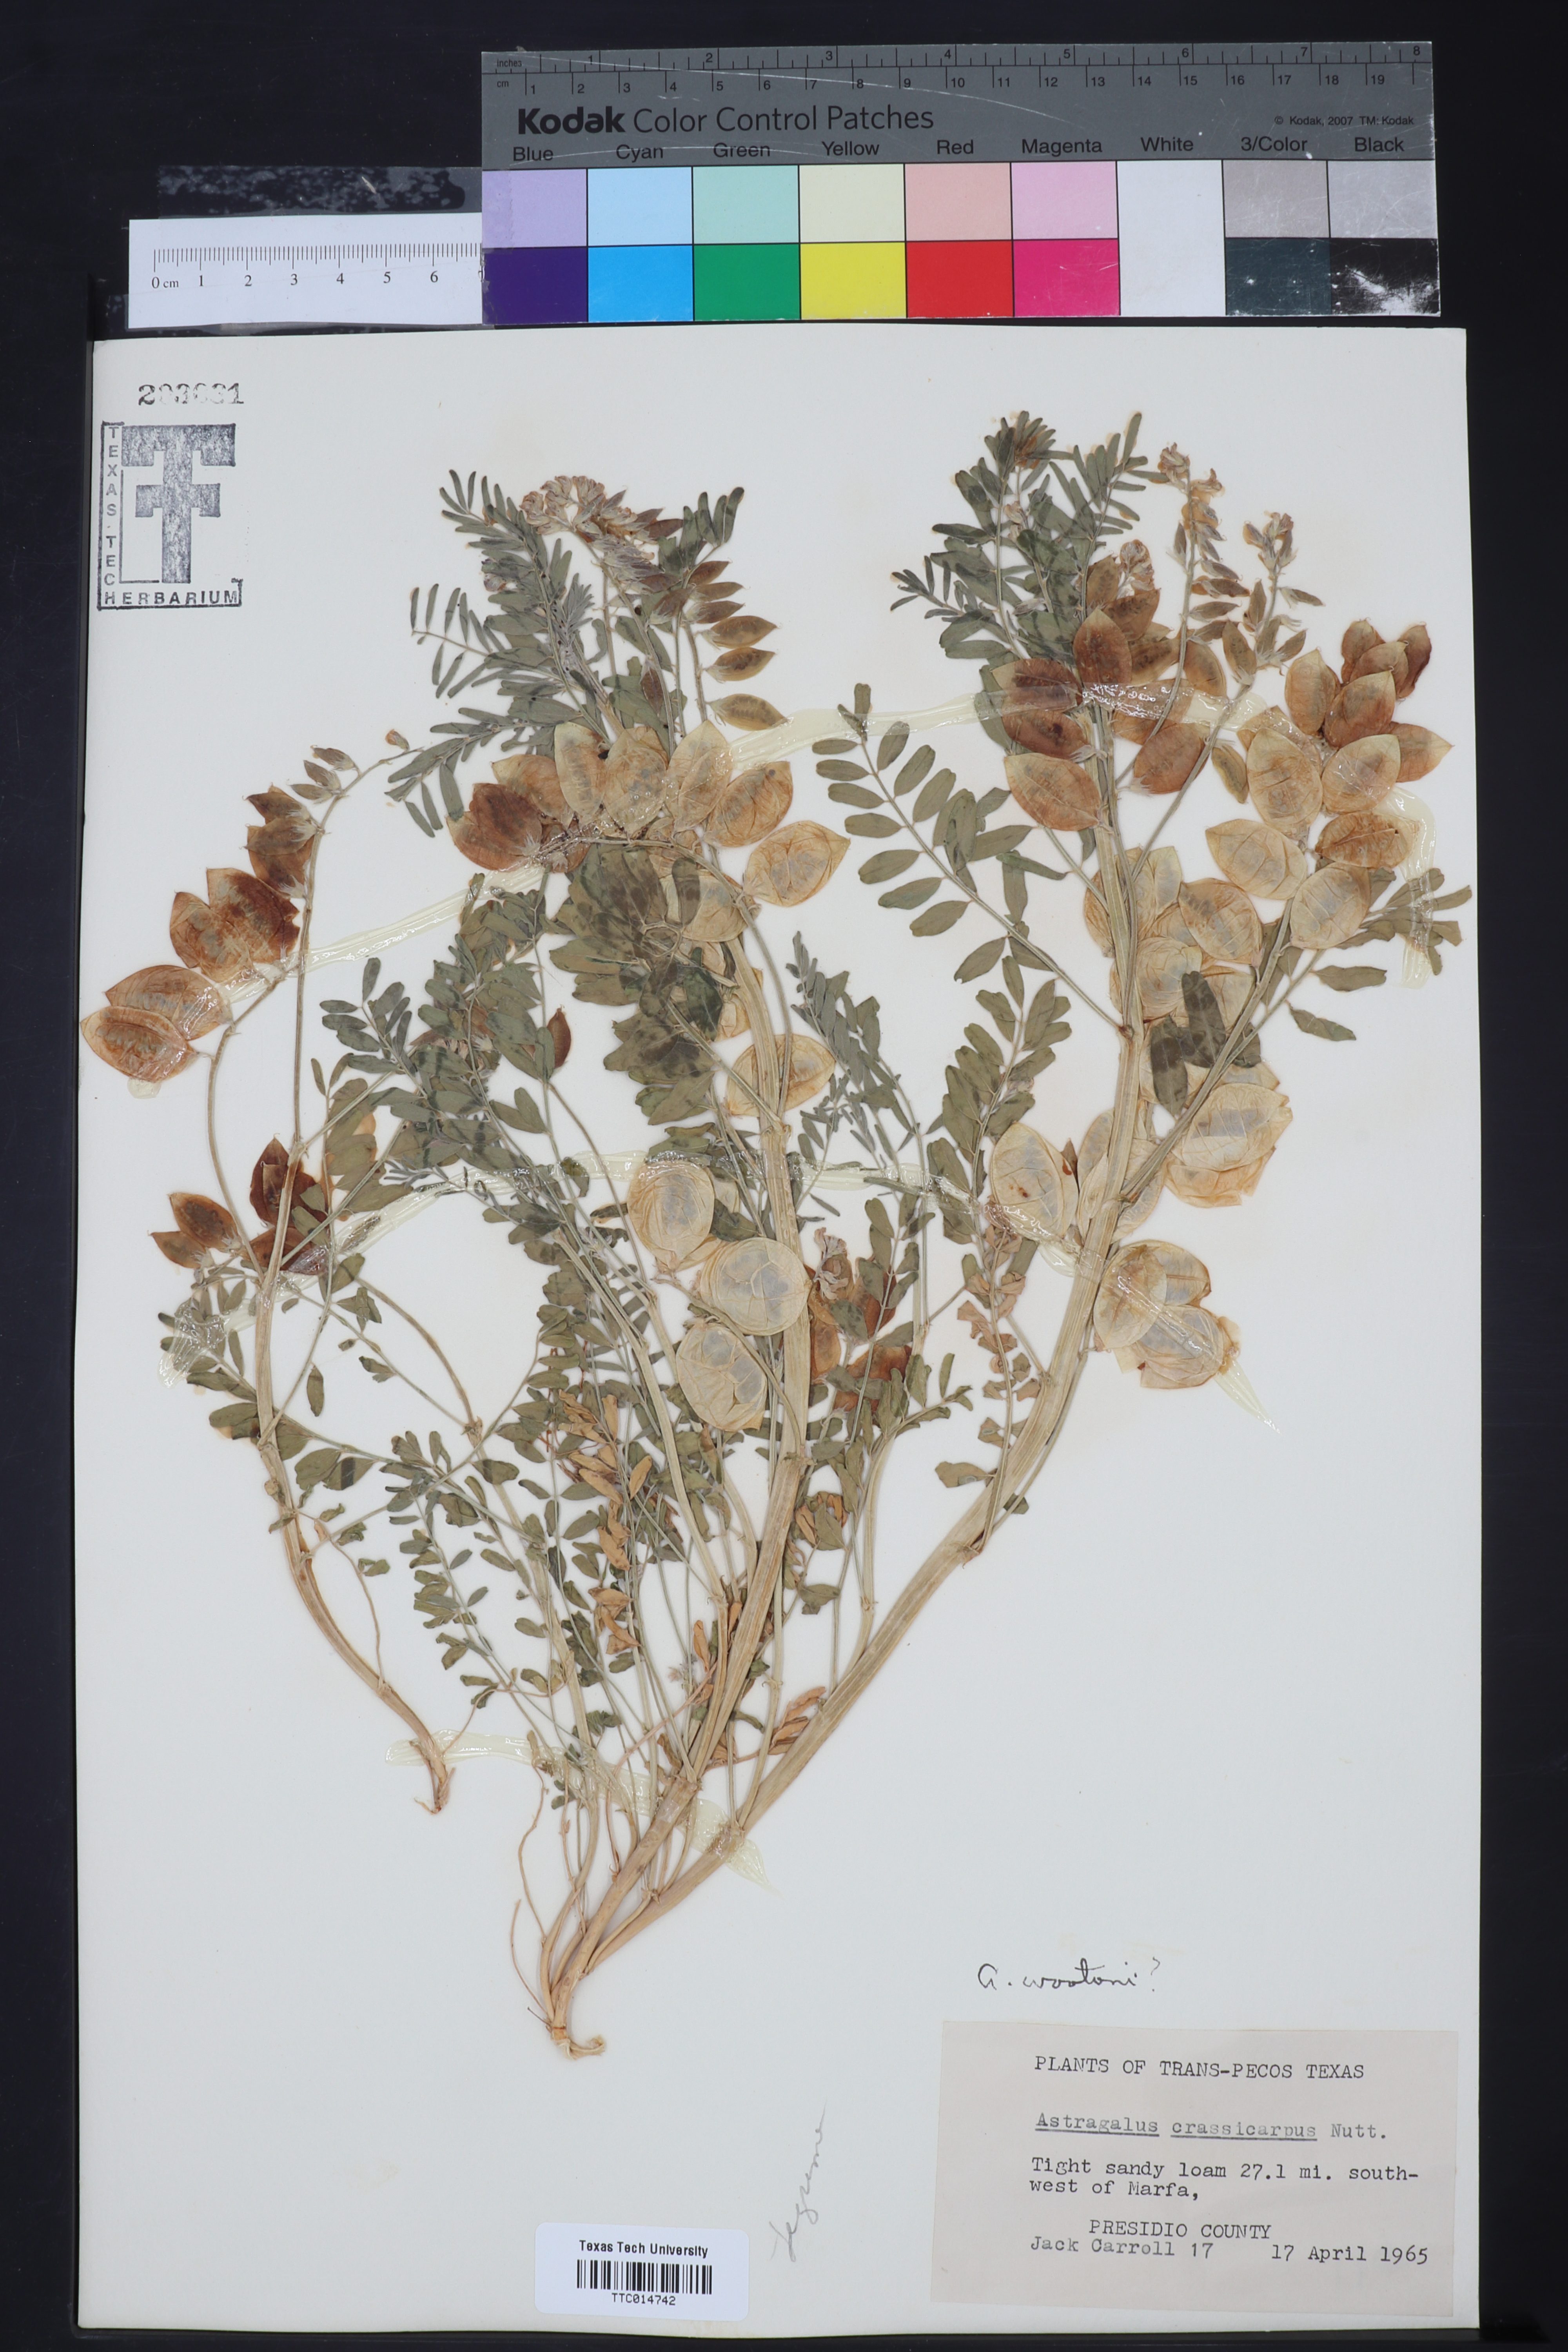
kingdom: Plantae
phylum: Tracheophyta
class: Magnoliopsida
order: Fabales
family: Fabaceae
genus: Astragalus
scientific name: Astragalus wootonii
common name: Wooton's milk-vetch
